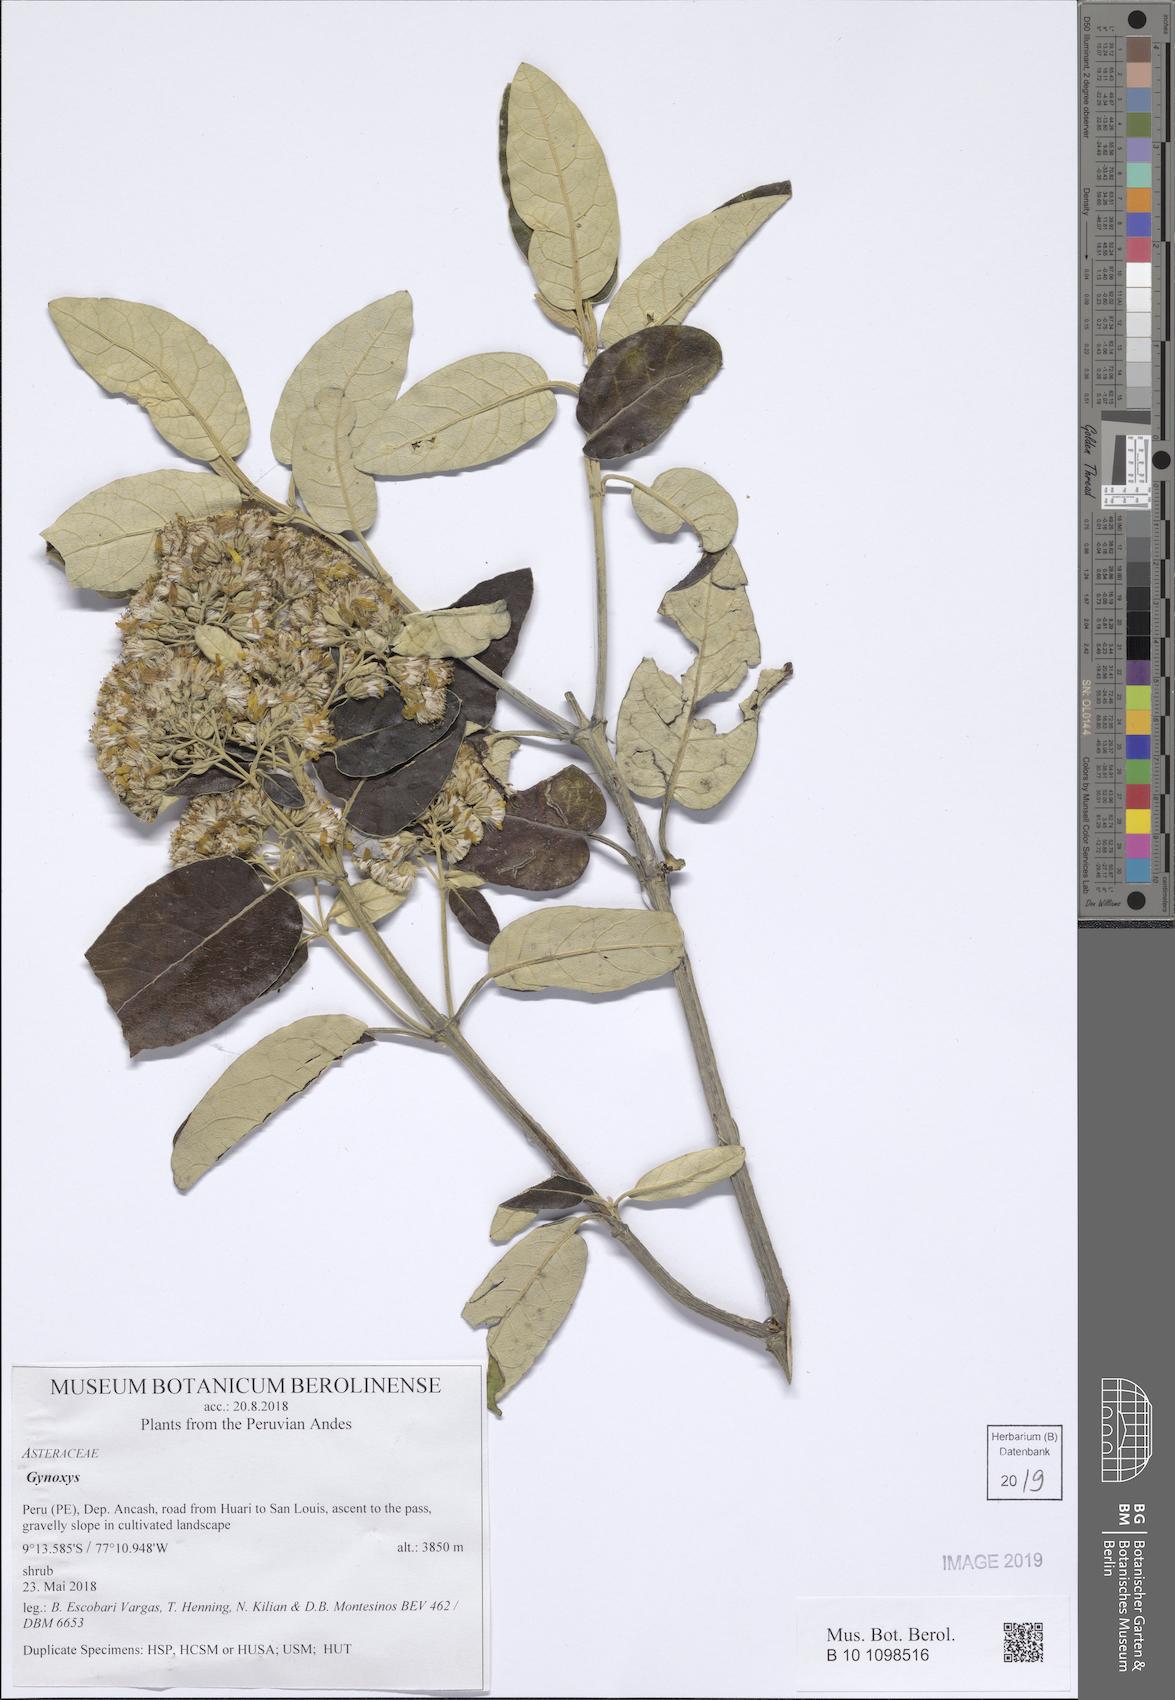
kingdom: Plantae
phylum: Tracheophyta
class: Magnoliopsida
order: Asterales
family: Asteraceae
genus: Gynoxys
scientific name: Gynoxys
